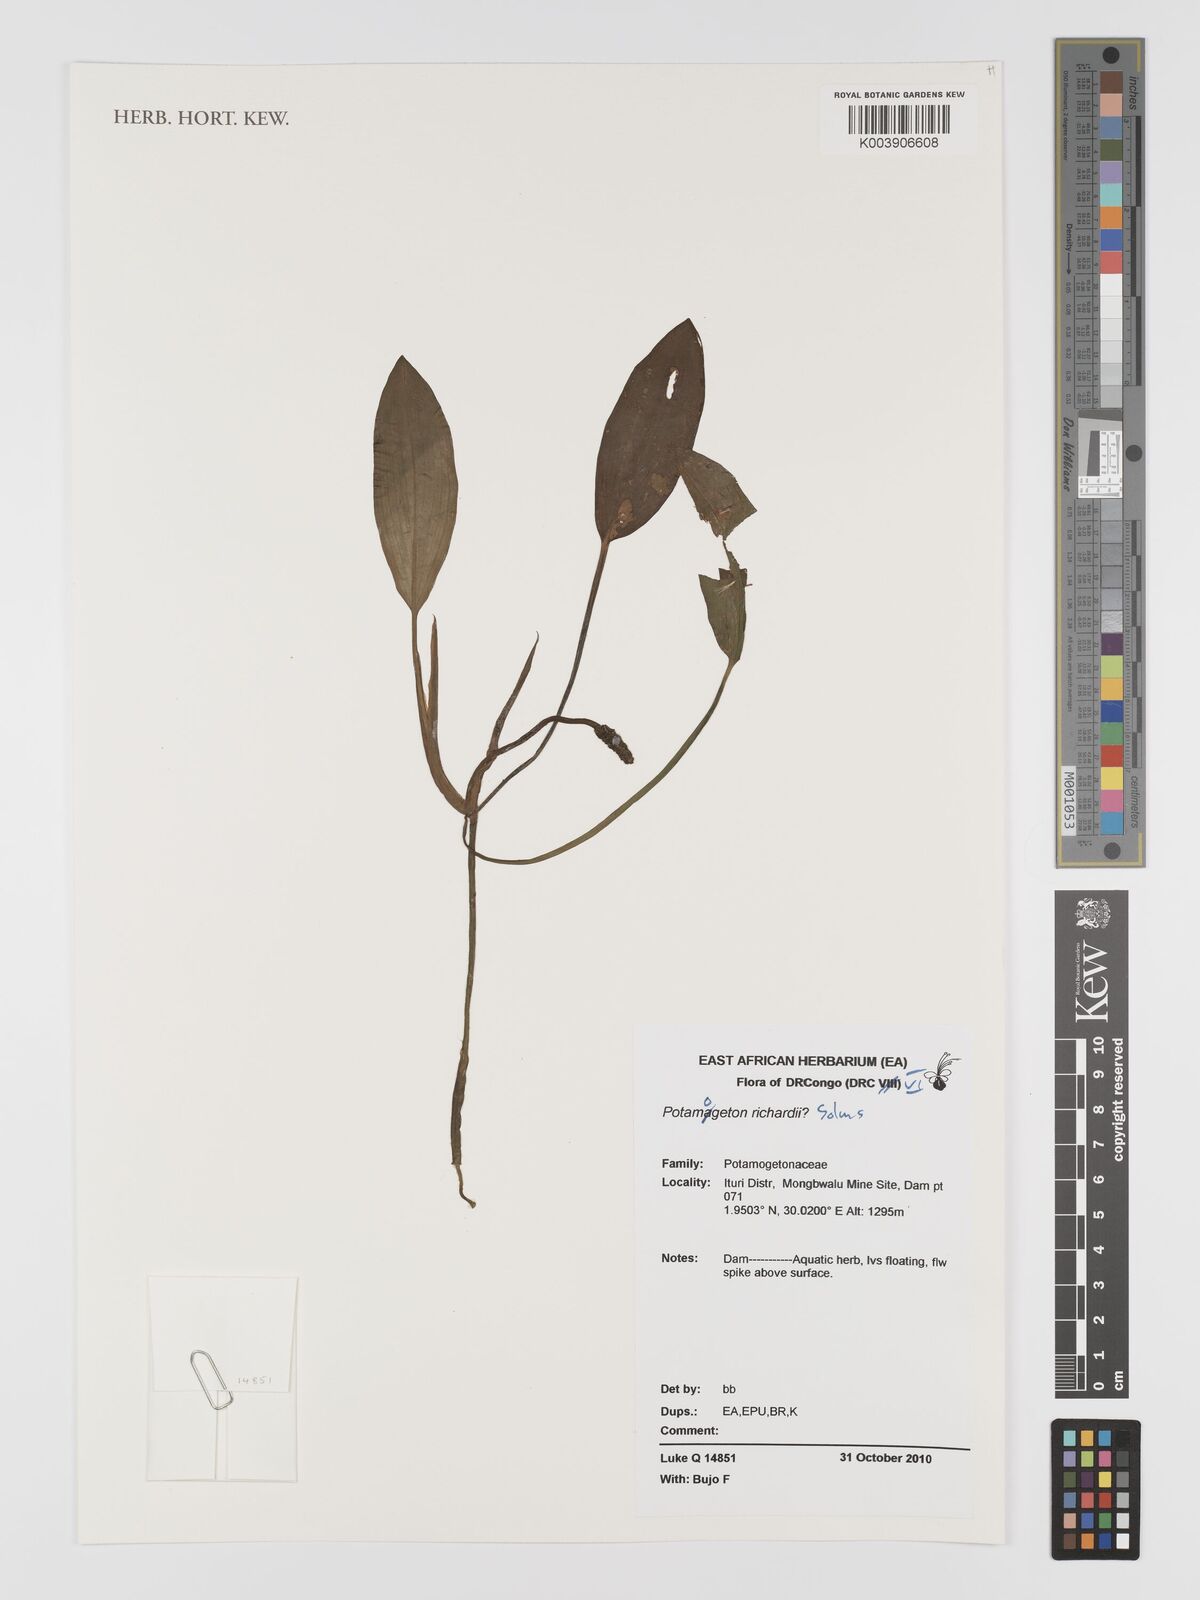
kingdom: Plantae
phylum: Tracheophyta
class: Liliopsida
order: Alismatales
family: Potamogetonaceae
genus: Potamogeton
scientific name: Potamogeton nodosus
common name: Loddon pondweed
